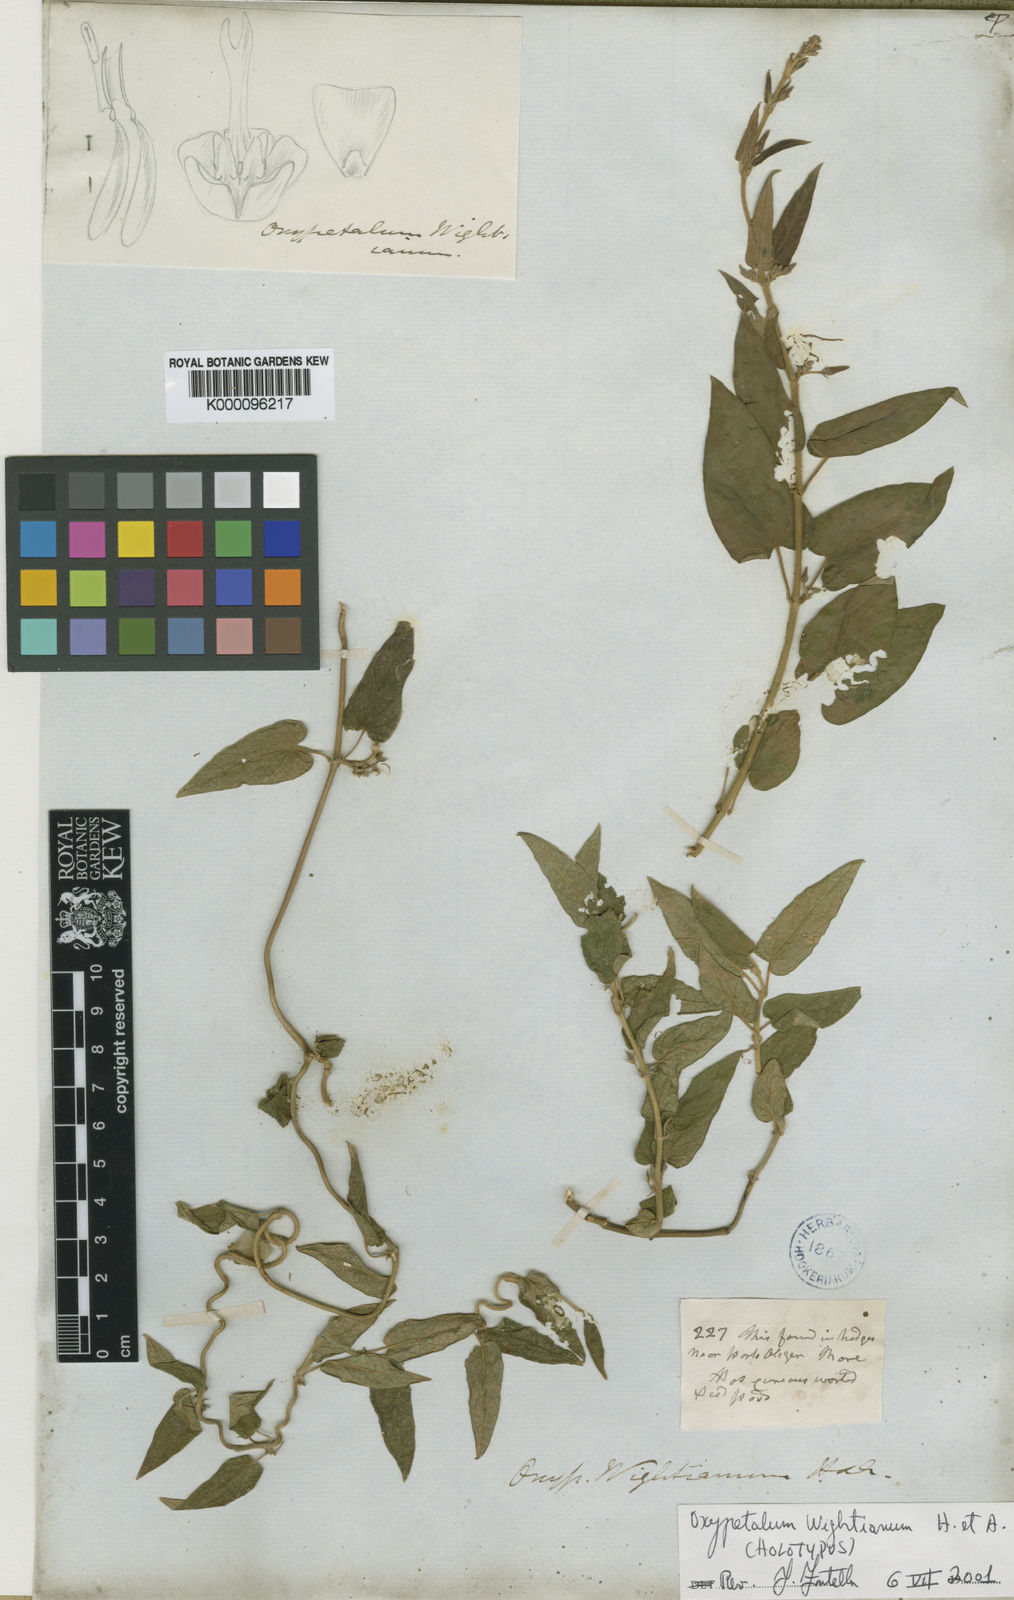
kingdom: Plantae
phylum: Tracheophyta
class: Magnoliopsida
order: Gentianales
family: Apocynaceae
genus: Oxypetalum
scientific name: Oxypetalum wightianum
